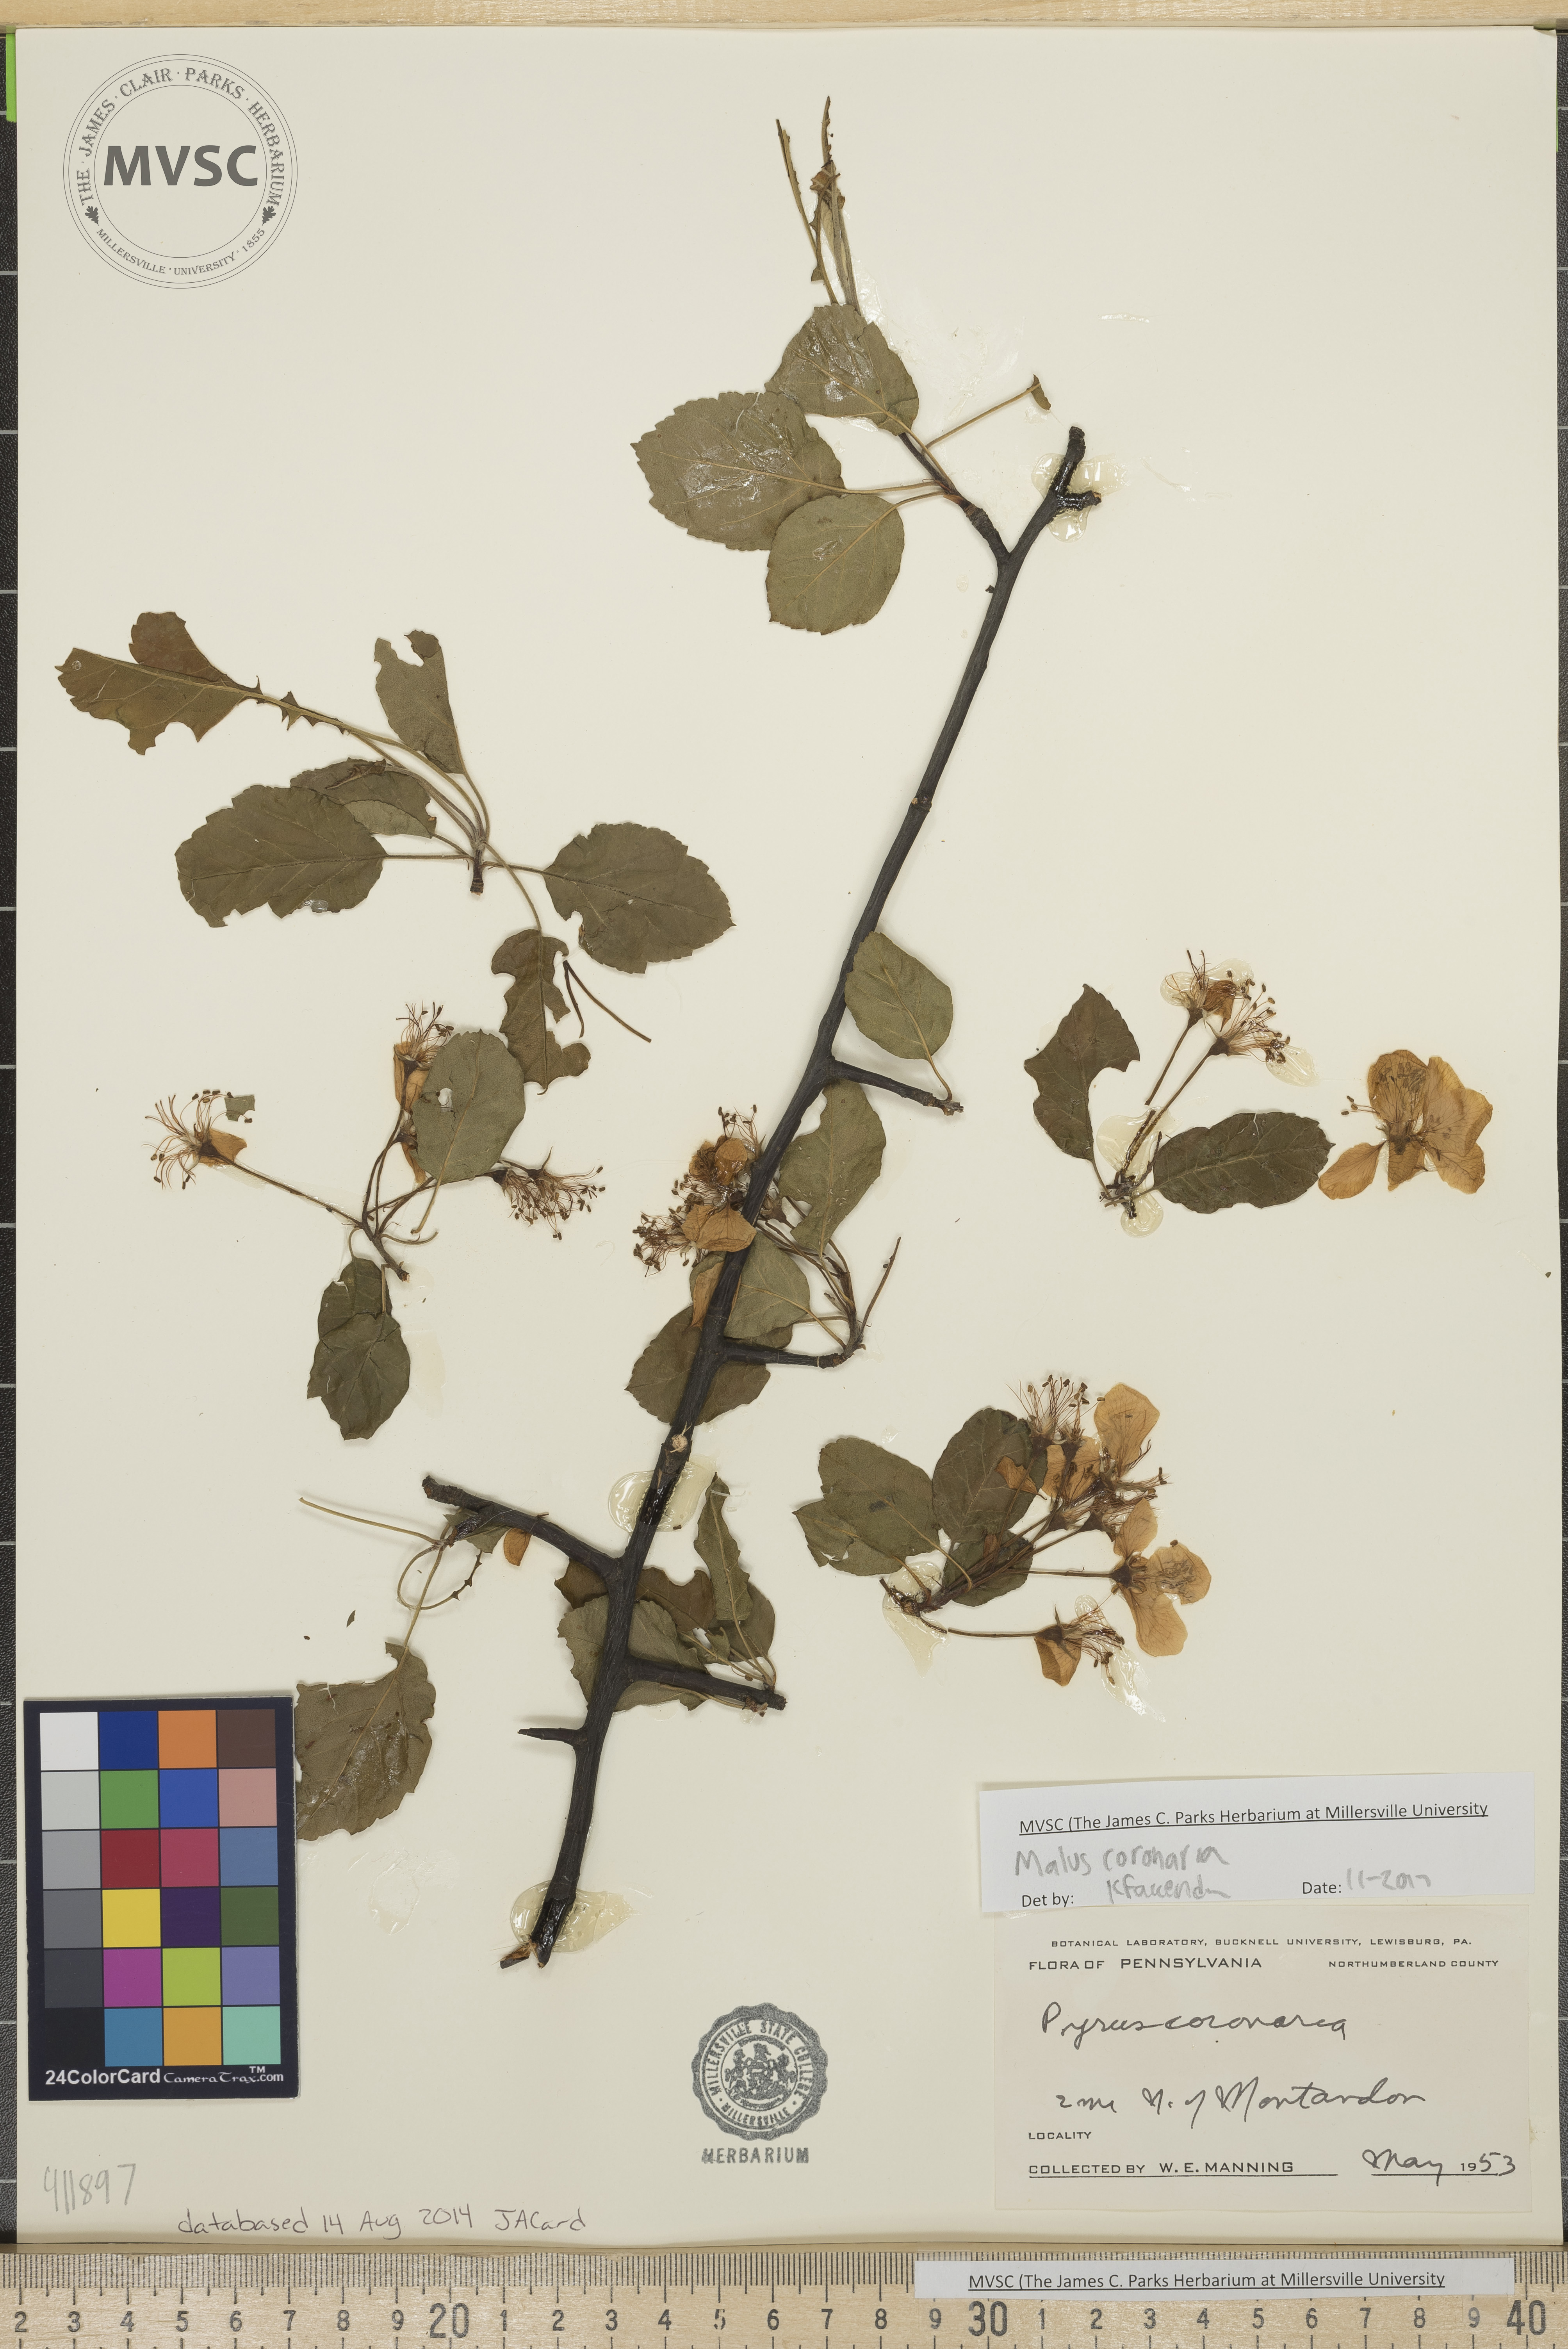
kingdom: Plantae
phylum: Tracheophyta
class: Magnoliopsida
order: Rosales
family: Rosaceae
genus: Malus
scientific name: Malus coronaria
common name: Sweet crab apple
